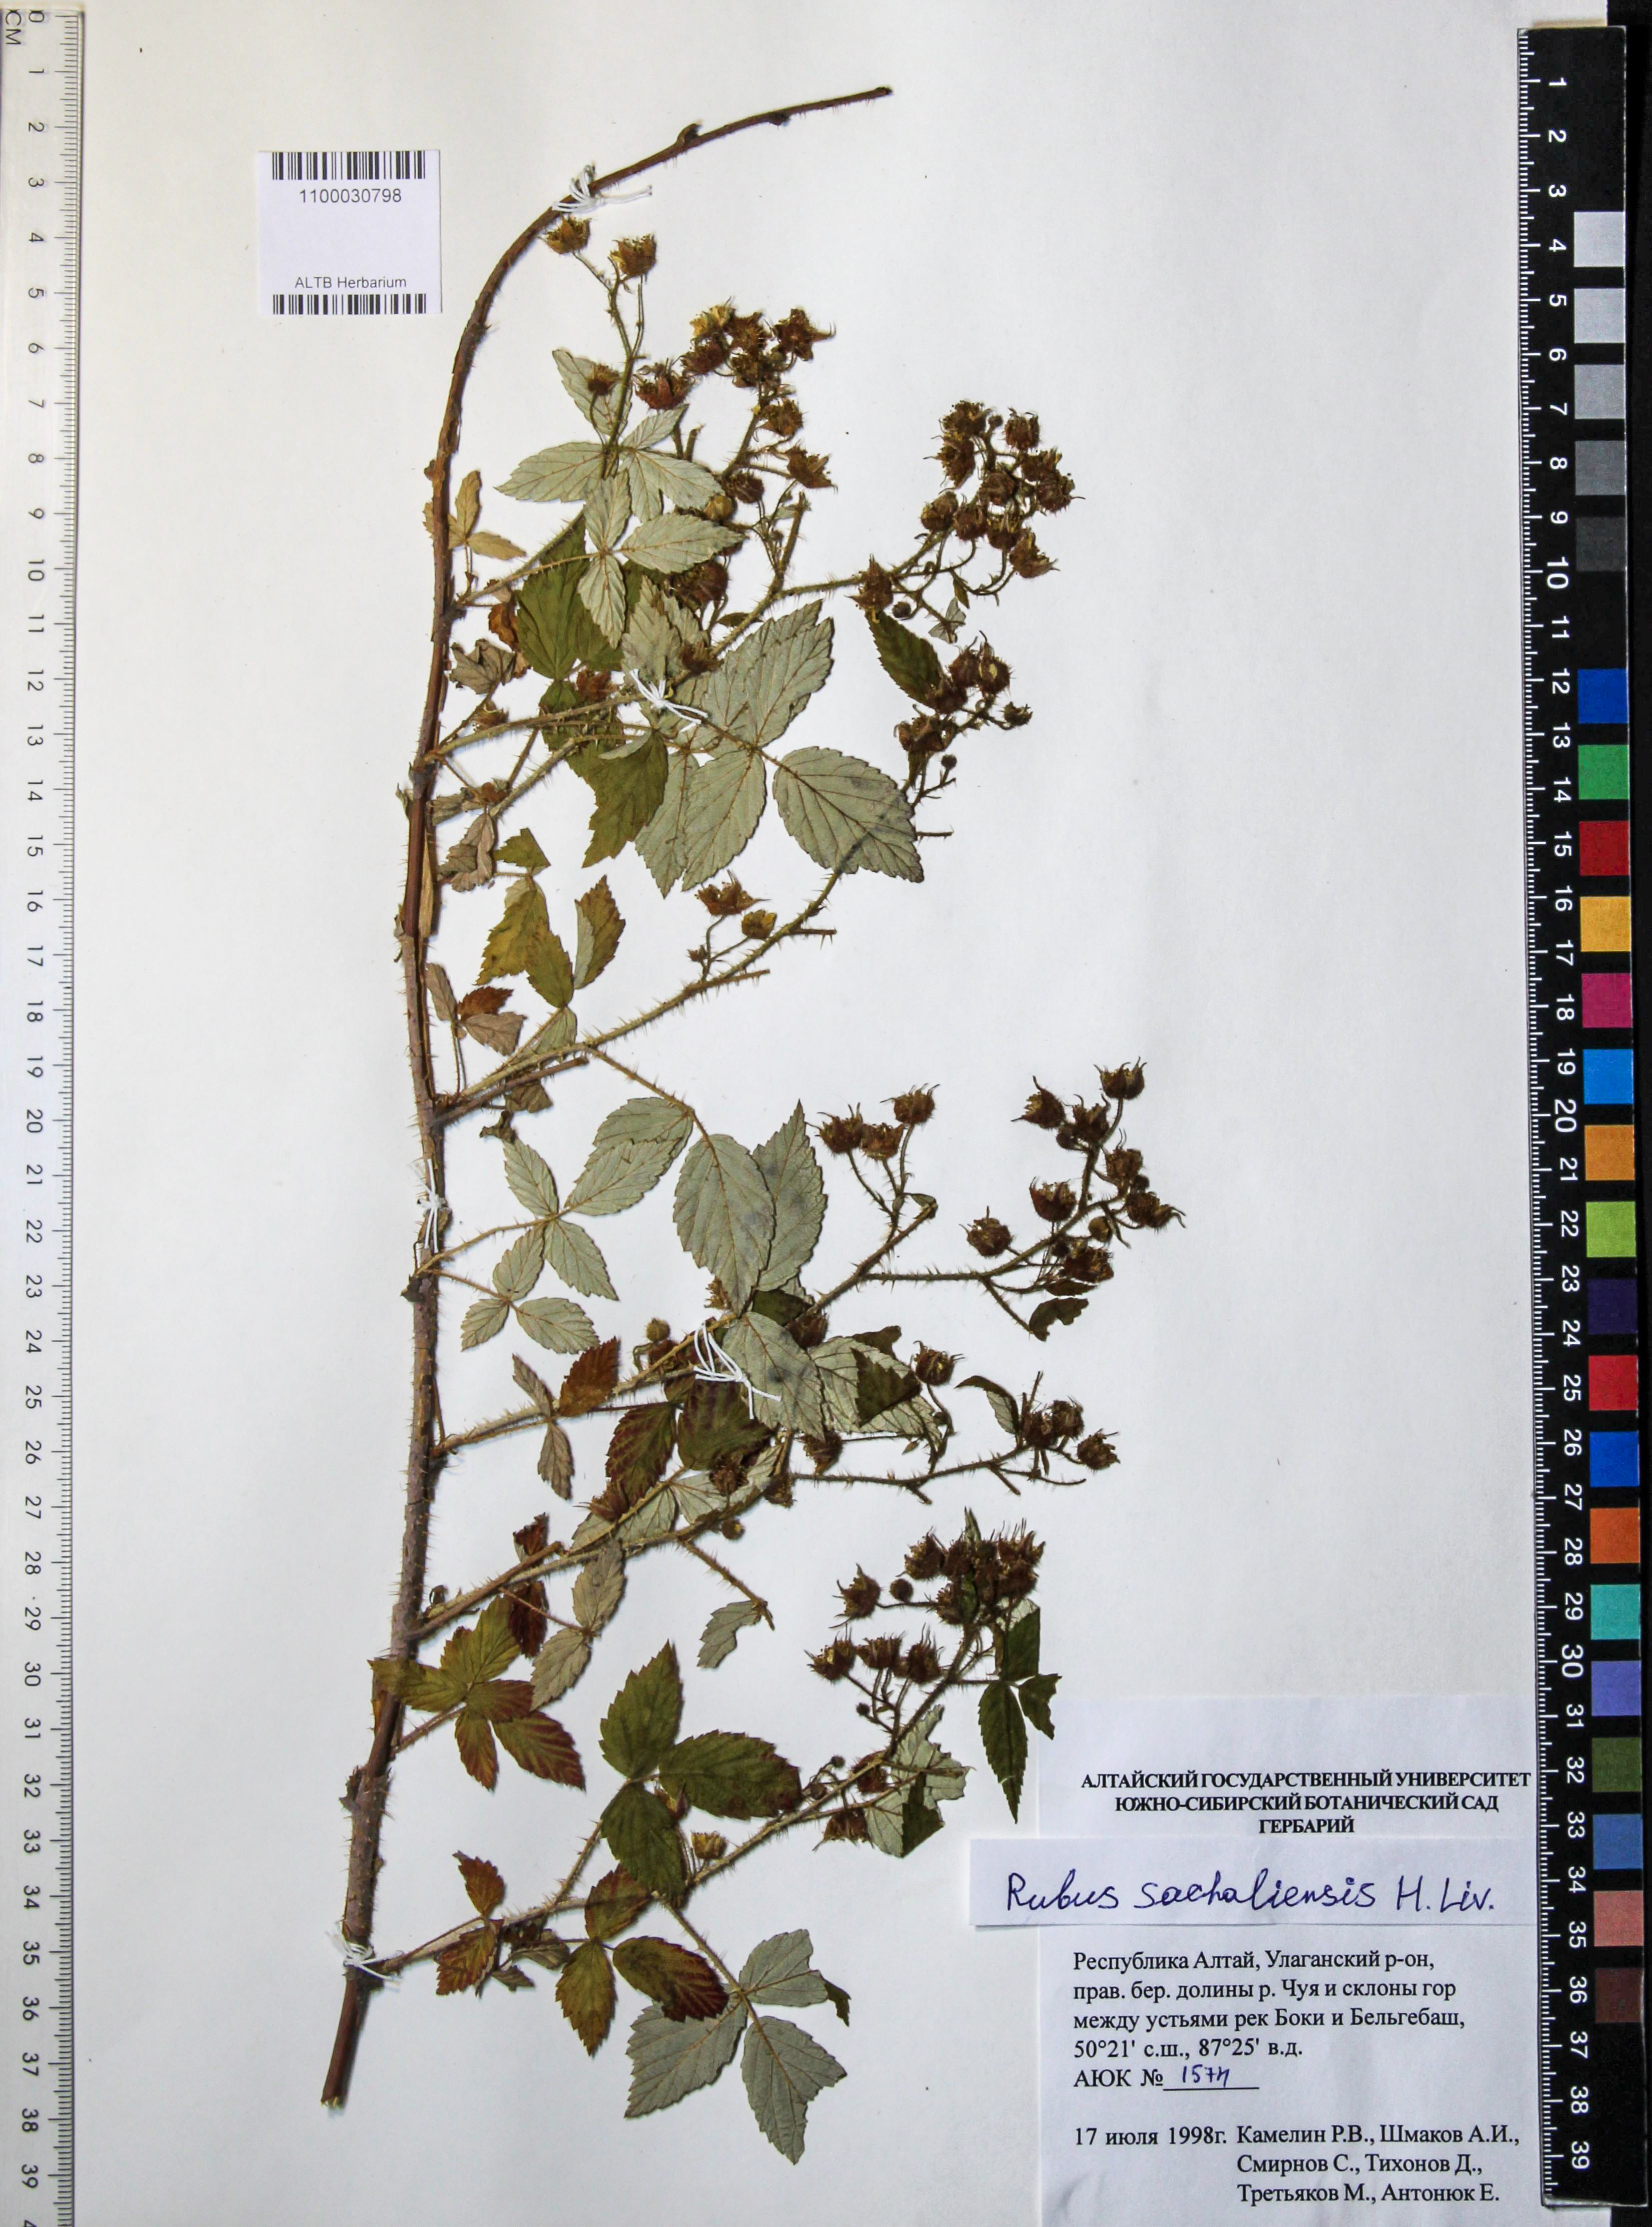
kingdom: Plantae
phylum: Tracheophyta
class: Magnoliopsida
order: Rosales
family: Rosaceae
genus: Rubus
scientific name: Rubus sachalinensis
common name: Red raspberry
